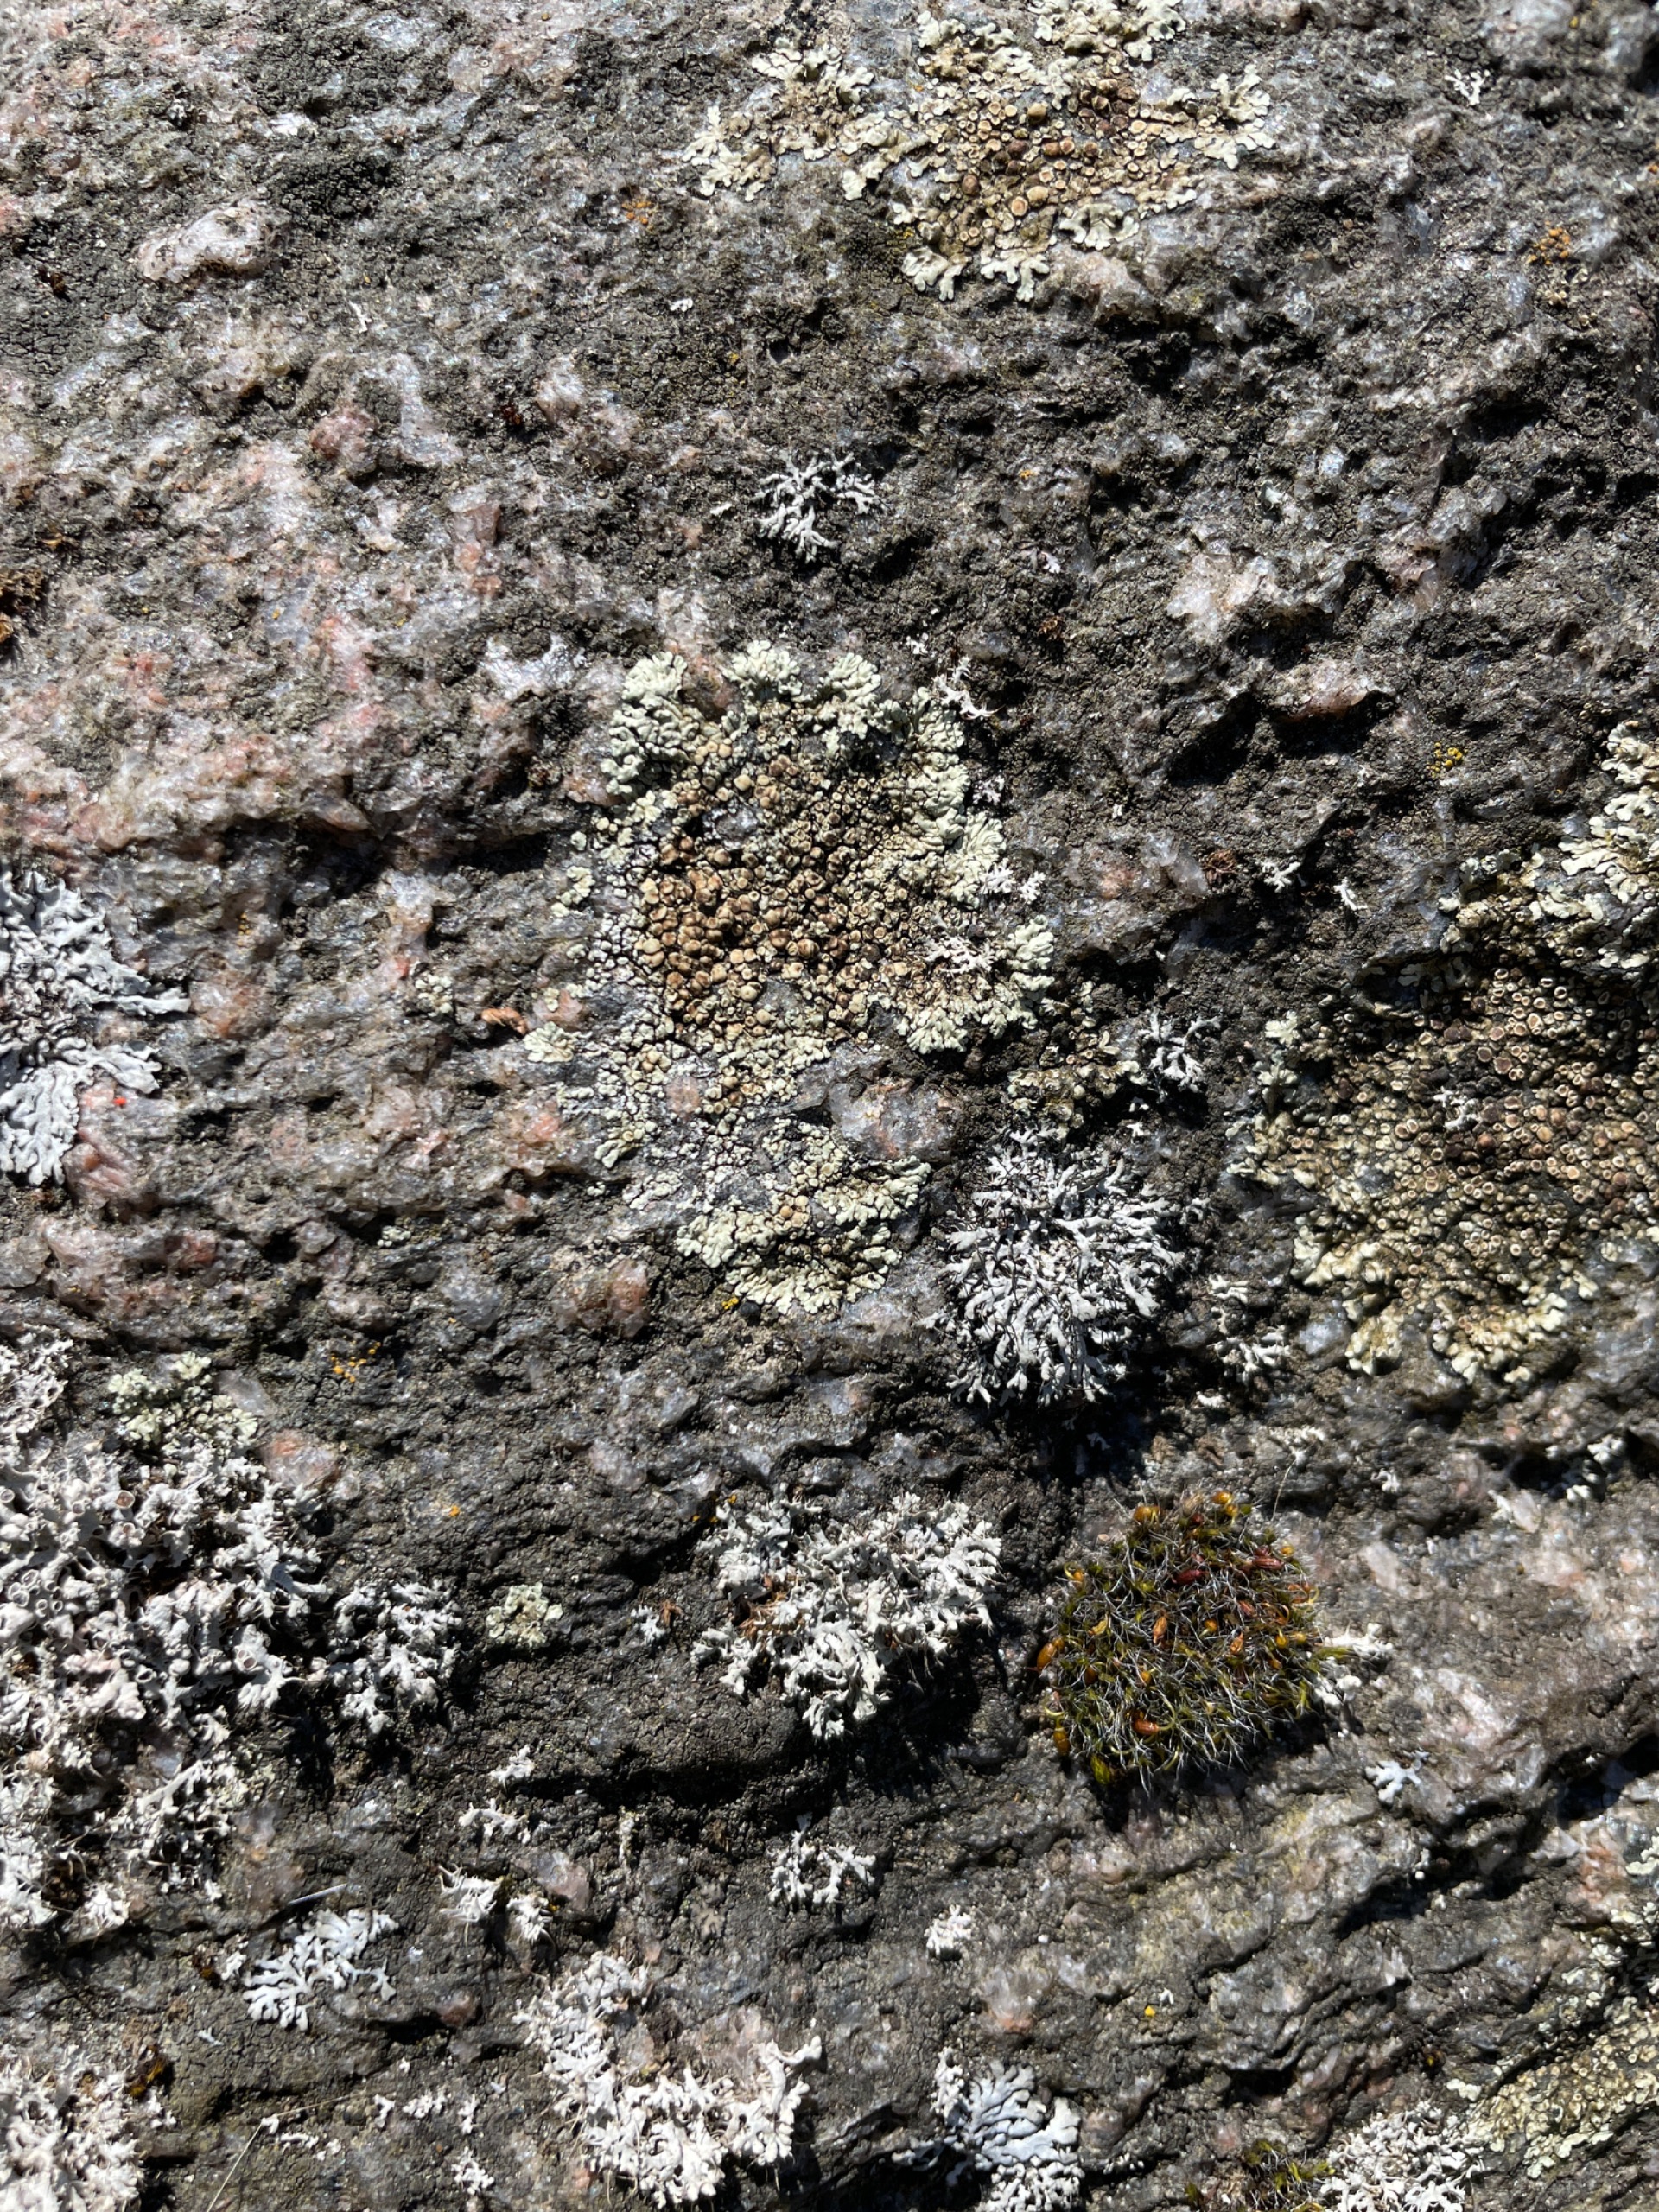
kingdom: Fungi
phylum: Ascomycota
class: Lecanoromycetes
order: Lecanorales
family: Lecanoraceae
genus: Protoparmeliopsis
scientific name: Protoparmeliopsis muralis
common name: Randfliget kantskivelav
